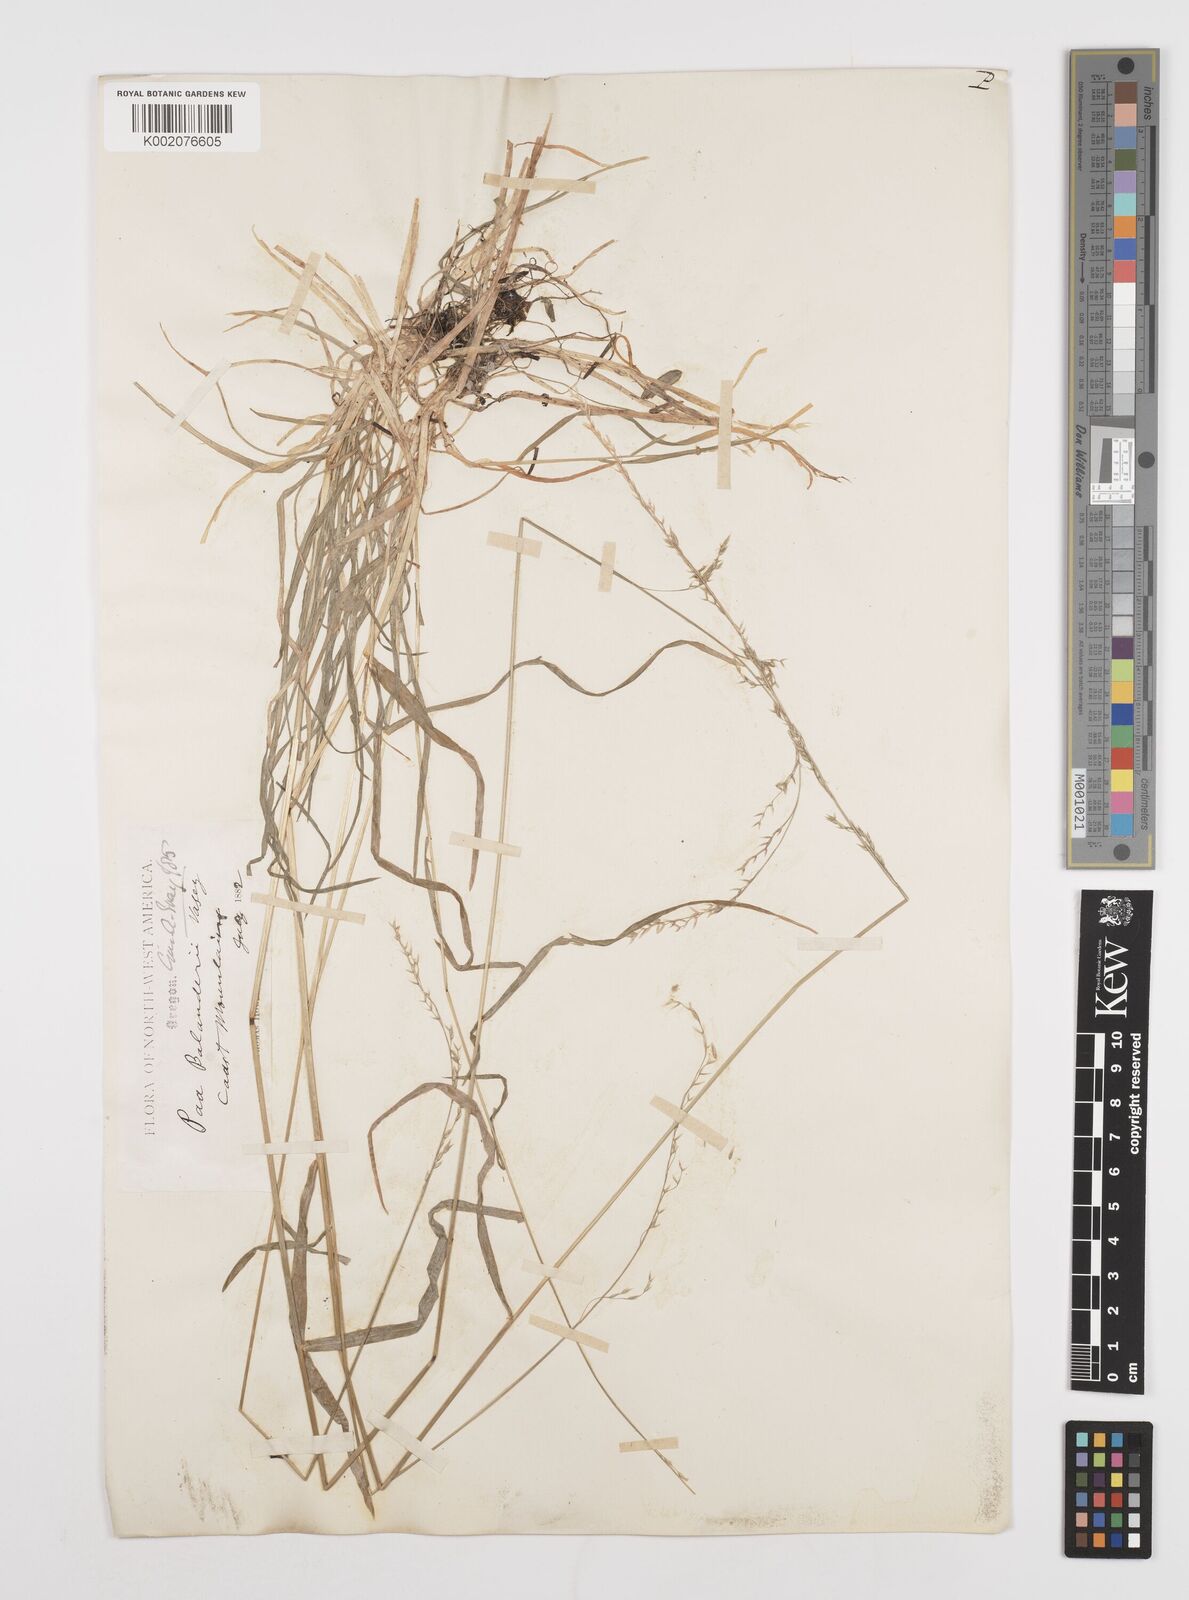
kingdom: Plantae
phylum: Tracheophyta
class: Liliopsida
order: Poales
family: Poaceae
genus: Poa
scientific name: Poa bolanderi
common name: Bolander's bluegrass
